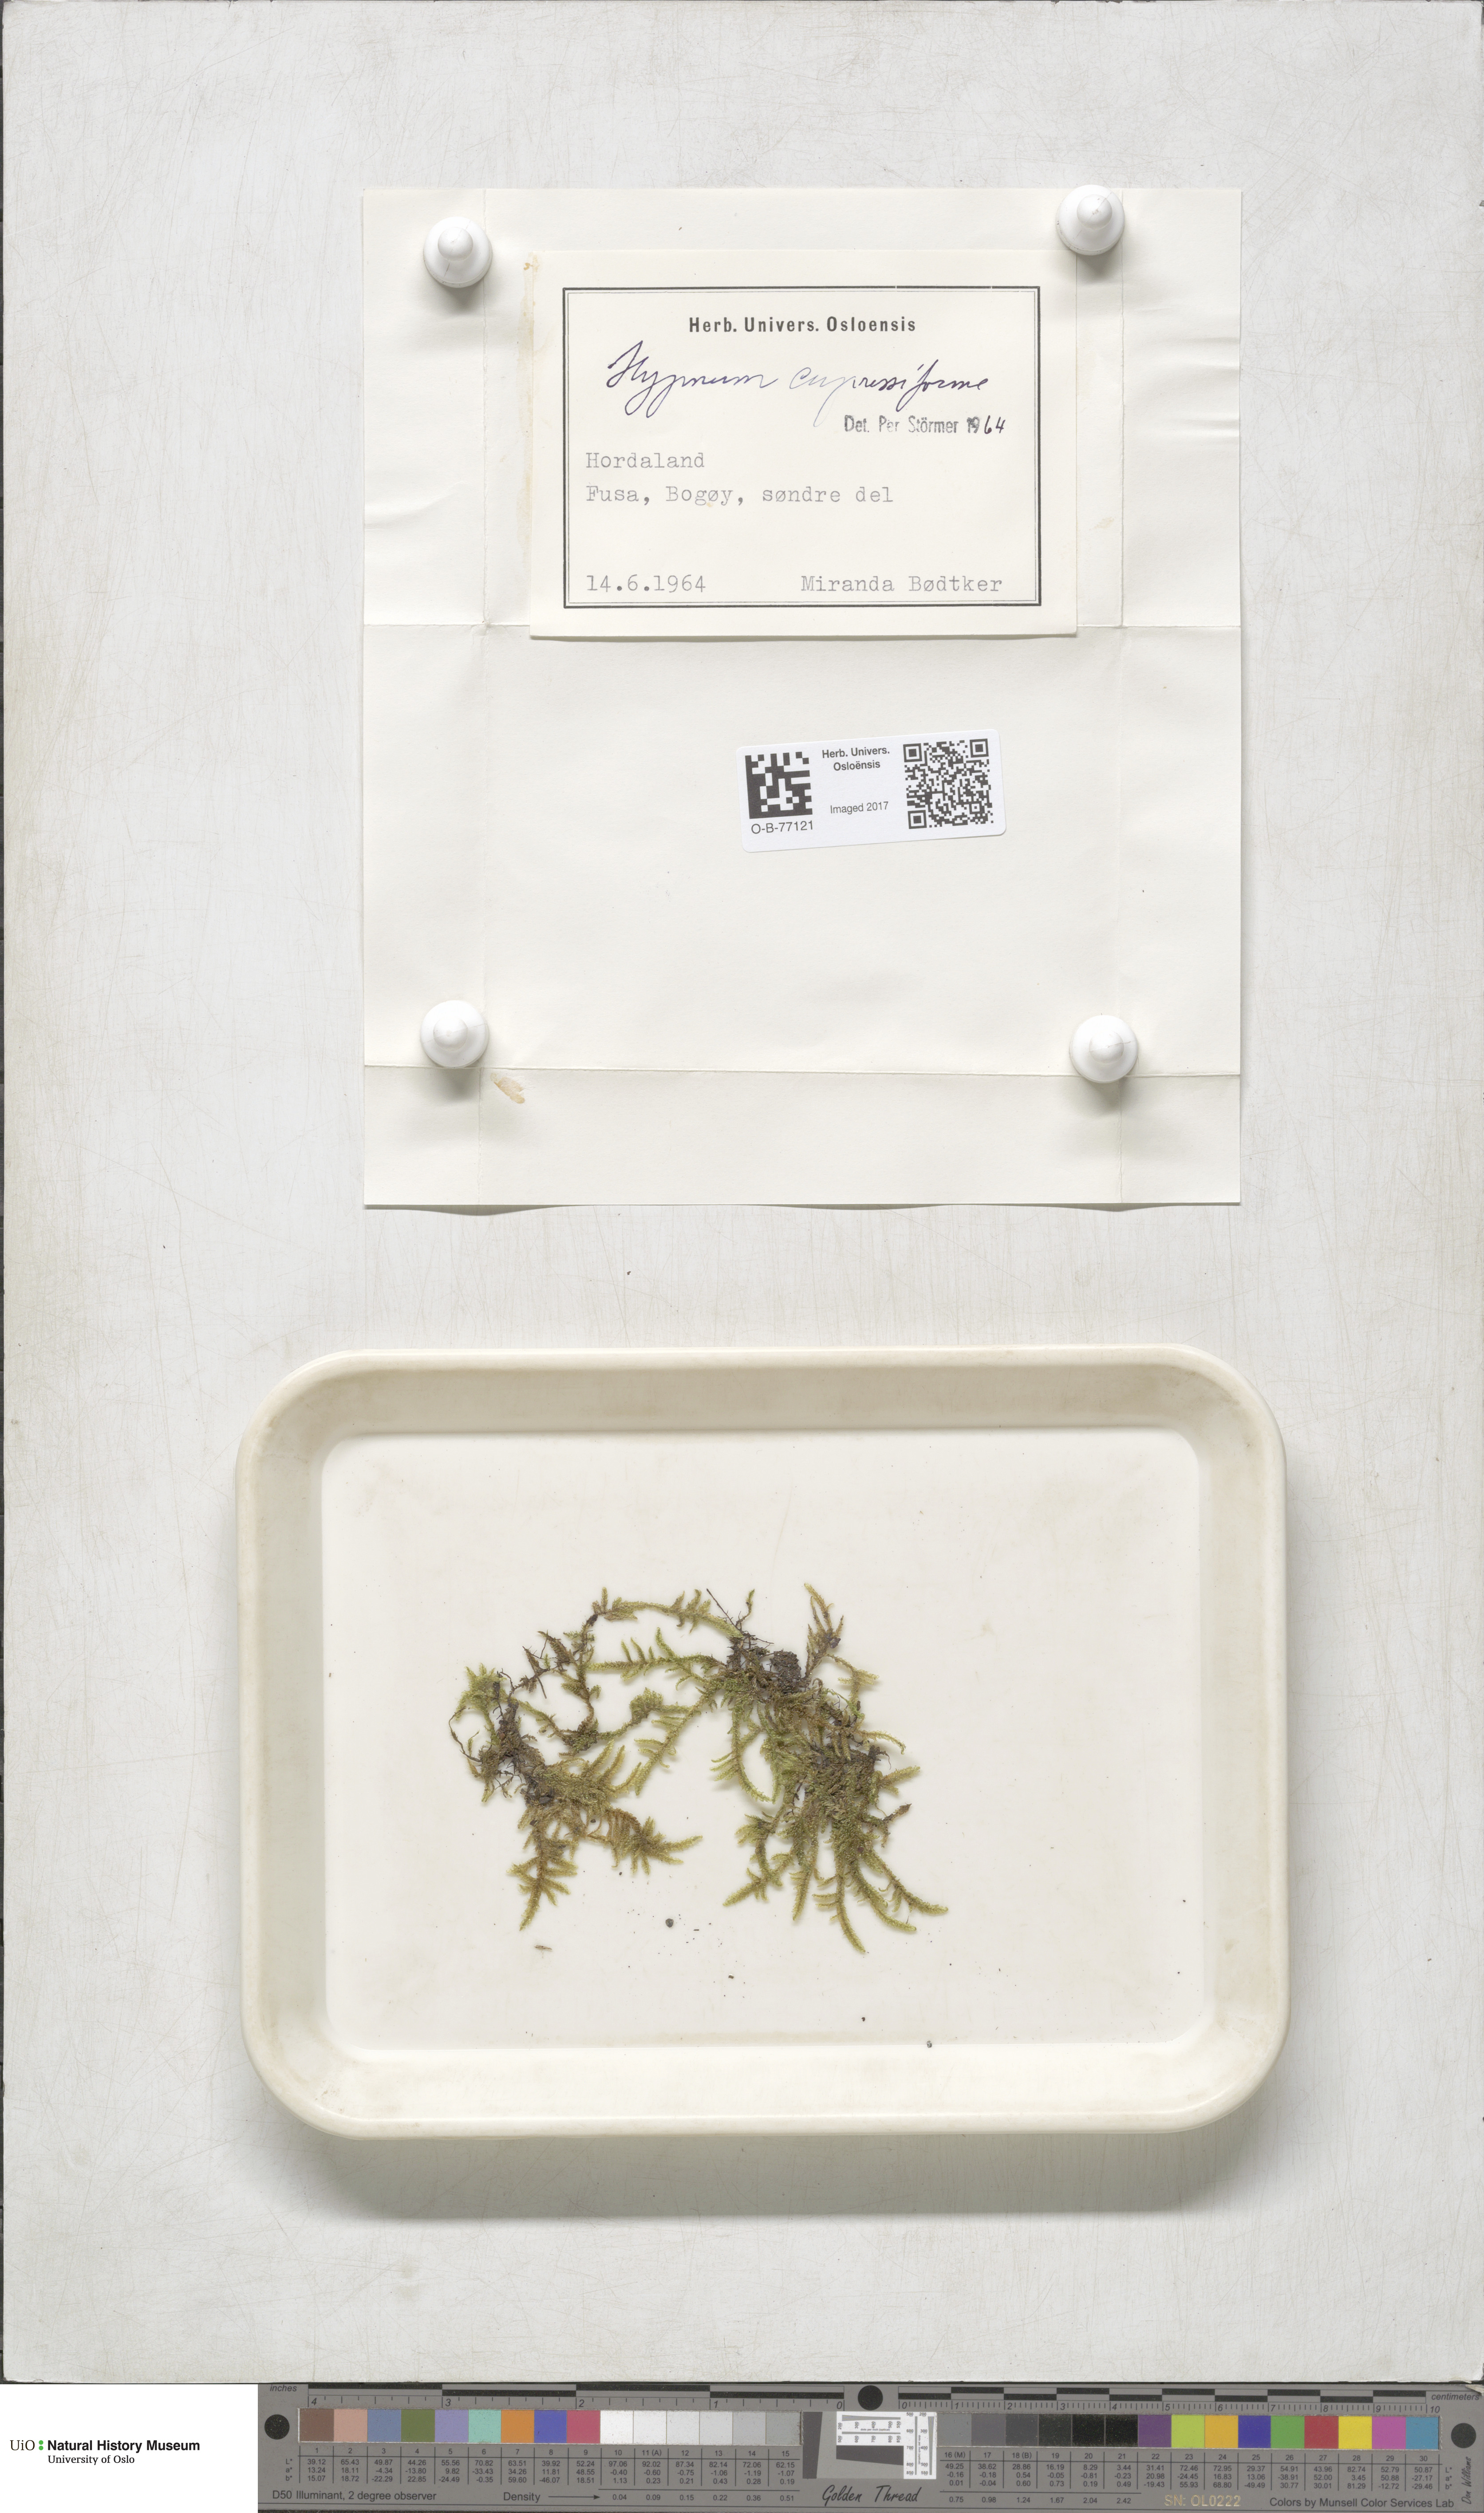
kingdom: Plantae
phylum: Bryophyta
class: Bryopsida
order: Hypnales
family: Hypnaceae
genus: Hypnum
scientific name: Hypnum cupressiforme
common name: Cypress-leaved plait-moss
